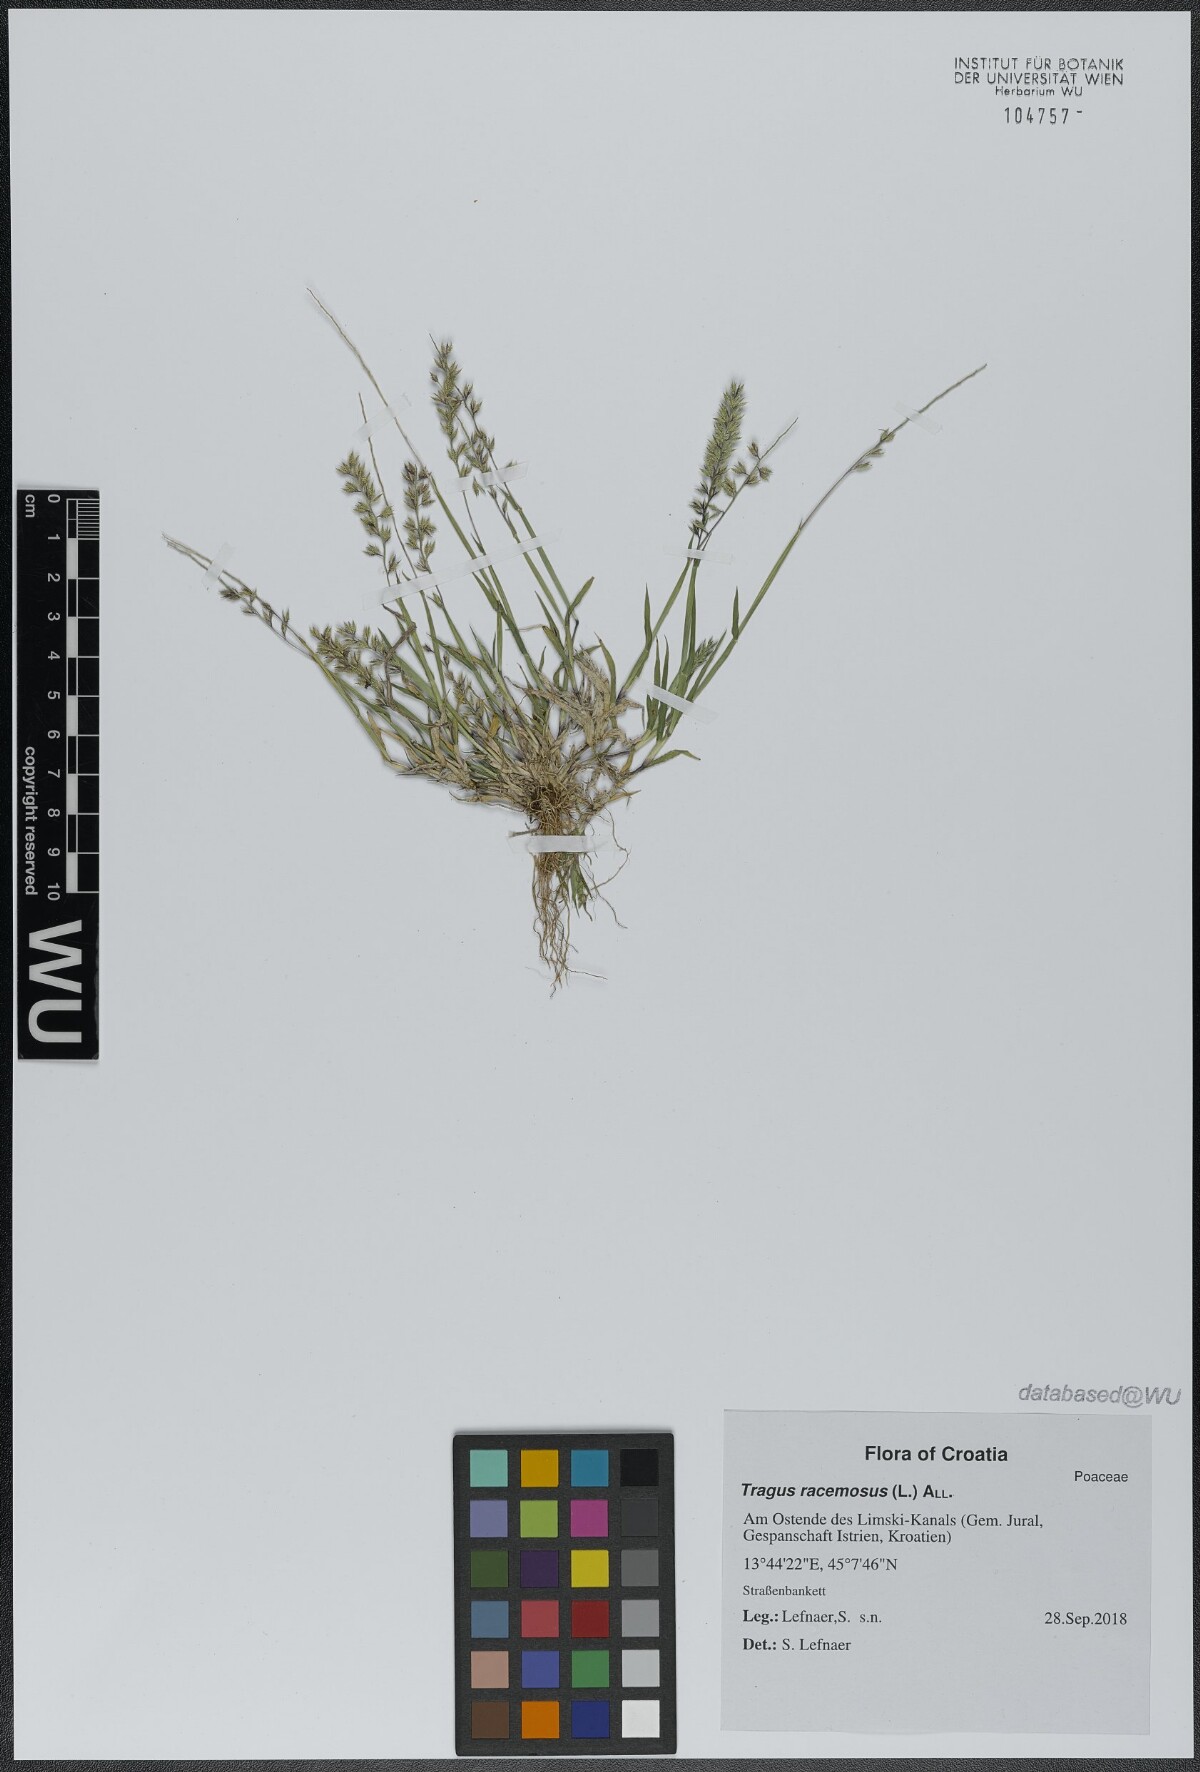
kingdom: Plantae
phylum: Tracheophyta
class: Liliopsida
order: Poales
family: Poaceae
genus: Tragus
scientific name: Tragus racemosus
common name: European bur-grass
